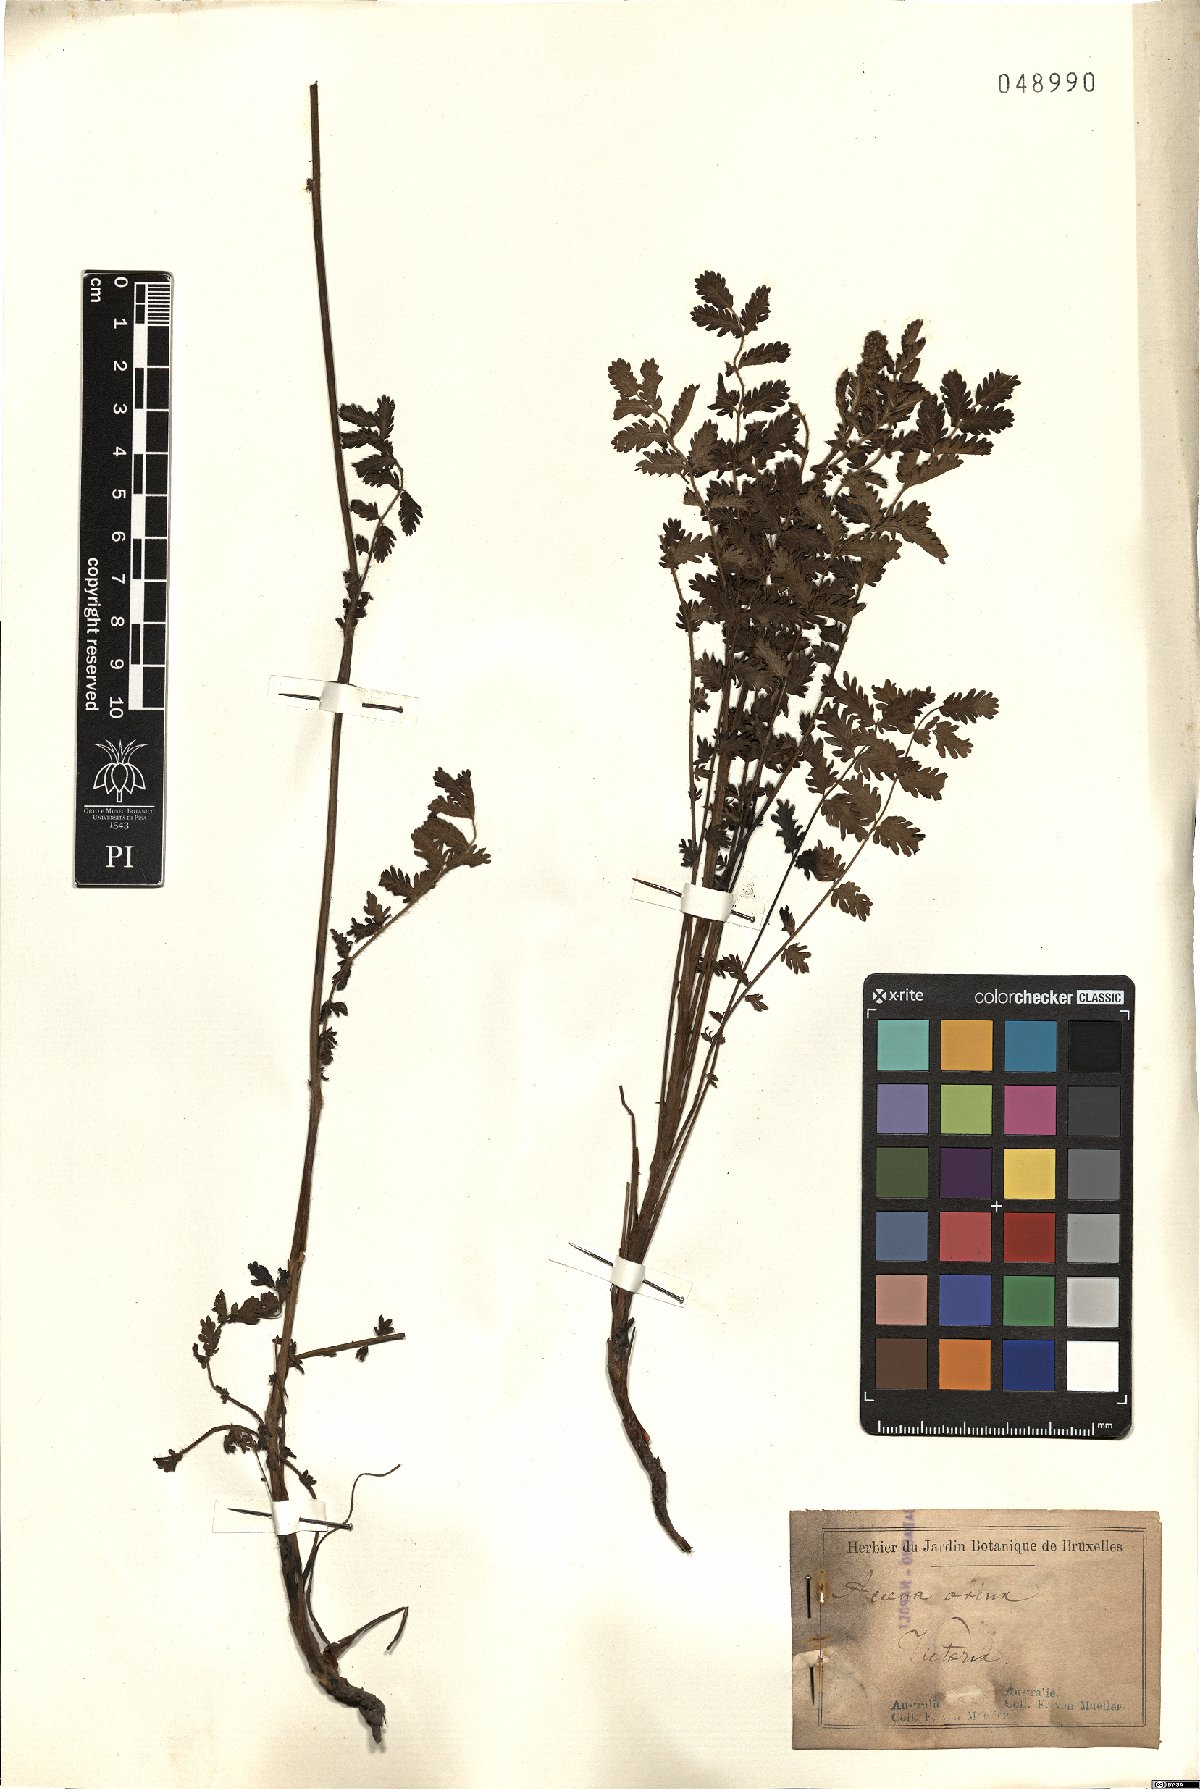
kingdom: Plantae
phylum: Tracheophyta
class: Magnoliopsida
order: Rosales
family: Rosaceae
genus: Acaena
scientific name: Acaena ovina
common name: Hairy sheepbur
